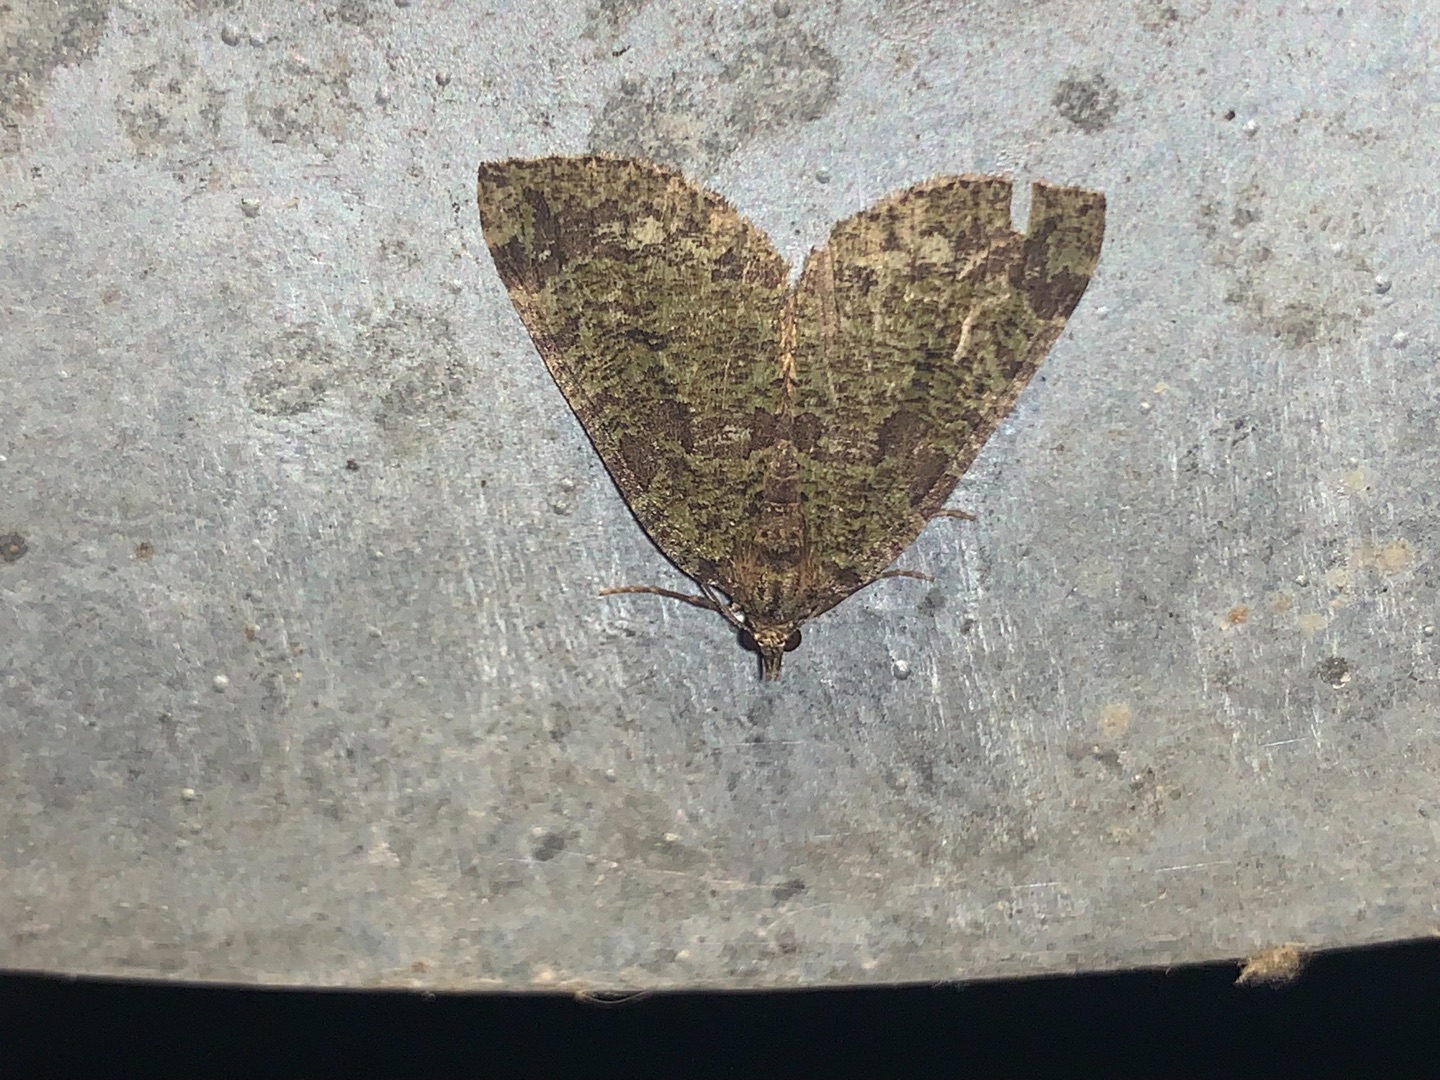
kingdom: Animalia
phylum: Arthropoda
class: Insecta
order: Lepidoptera
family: Geometridae
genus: Hydriomena
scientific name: Hydriomena furcata
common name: Vatret bladmåler
